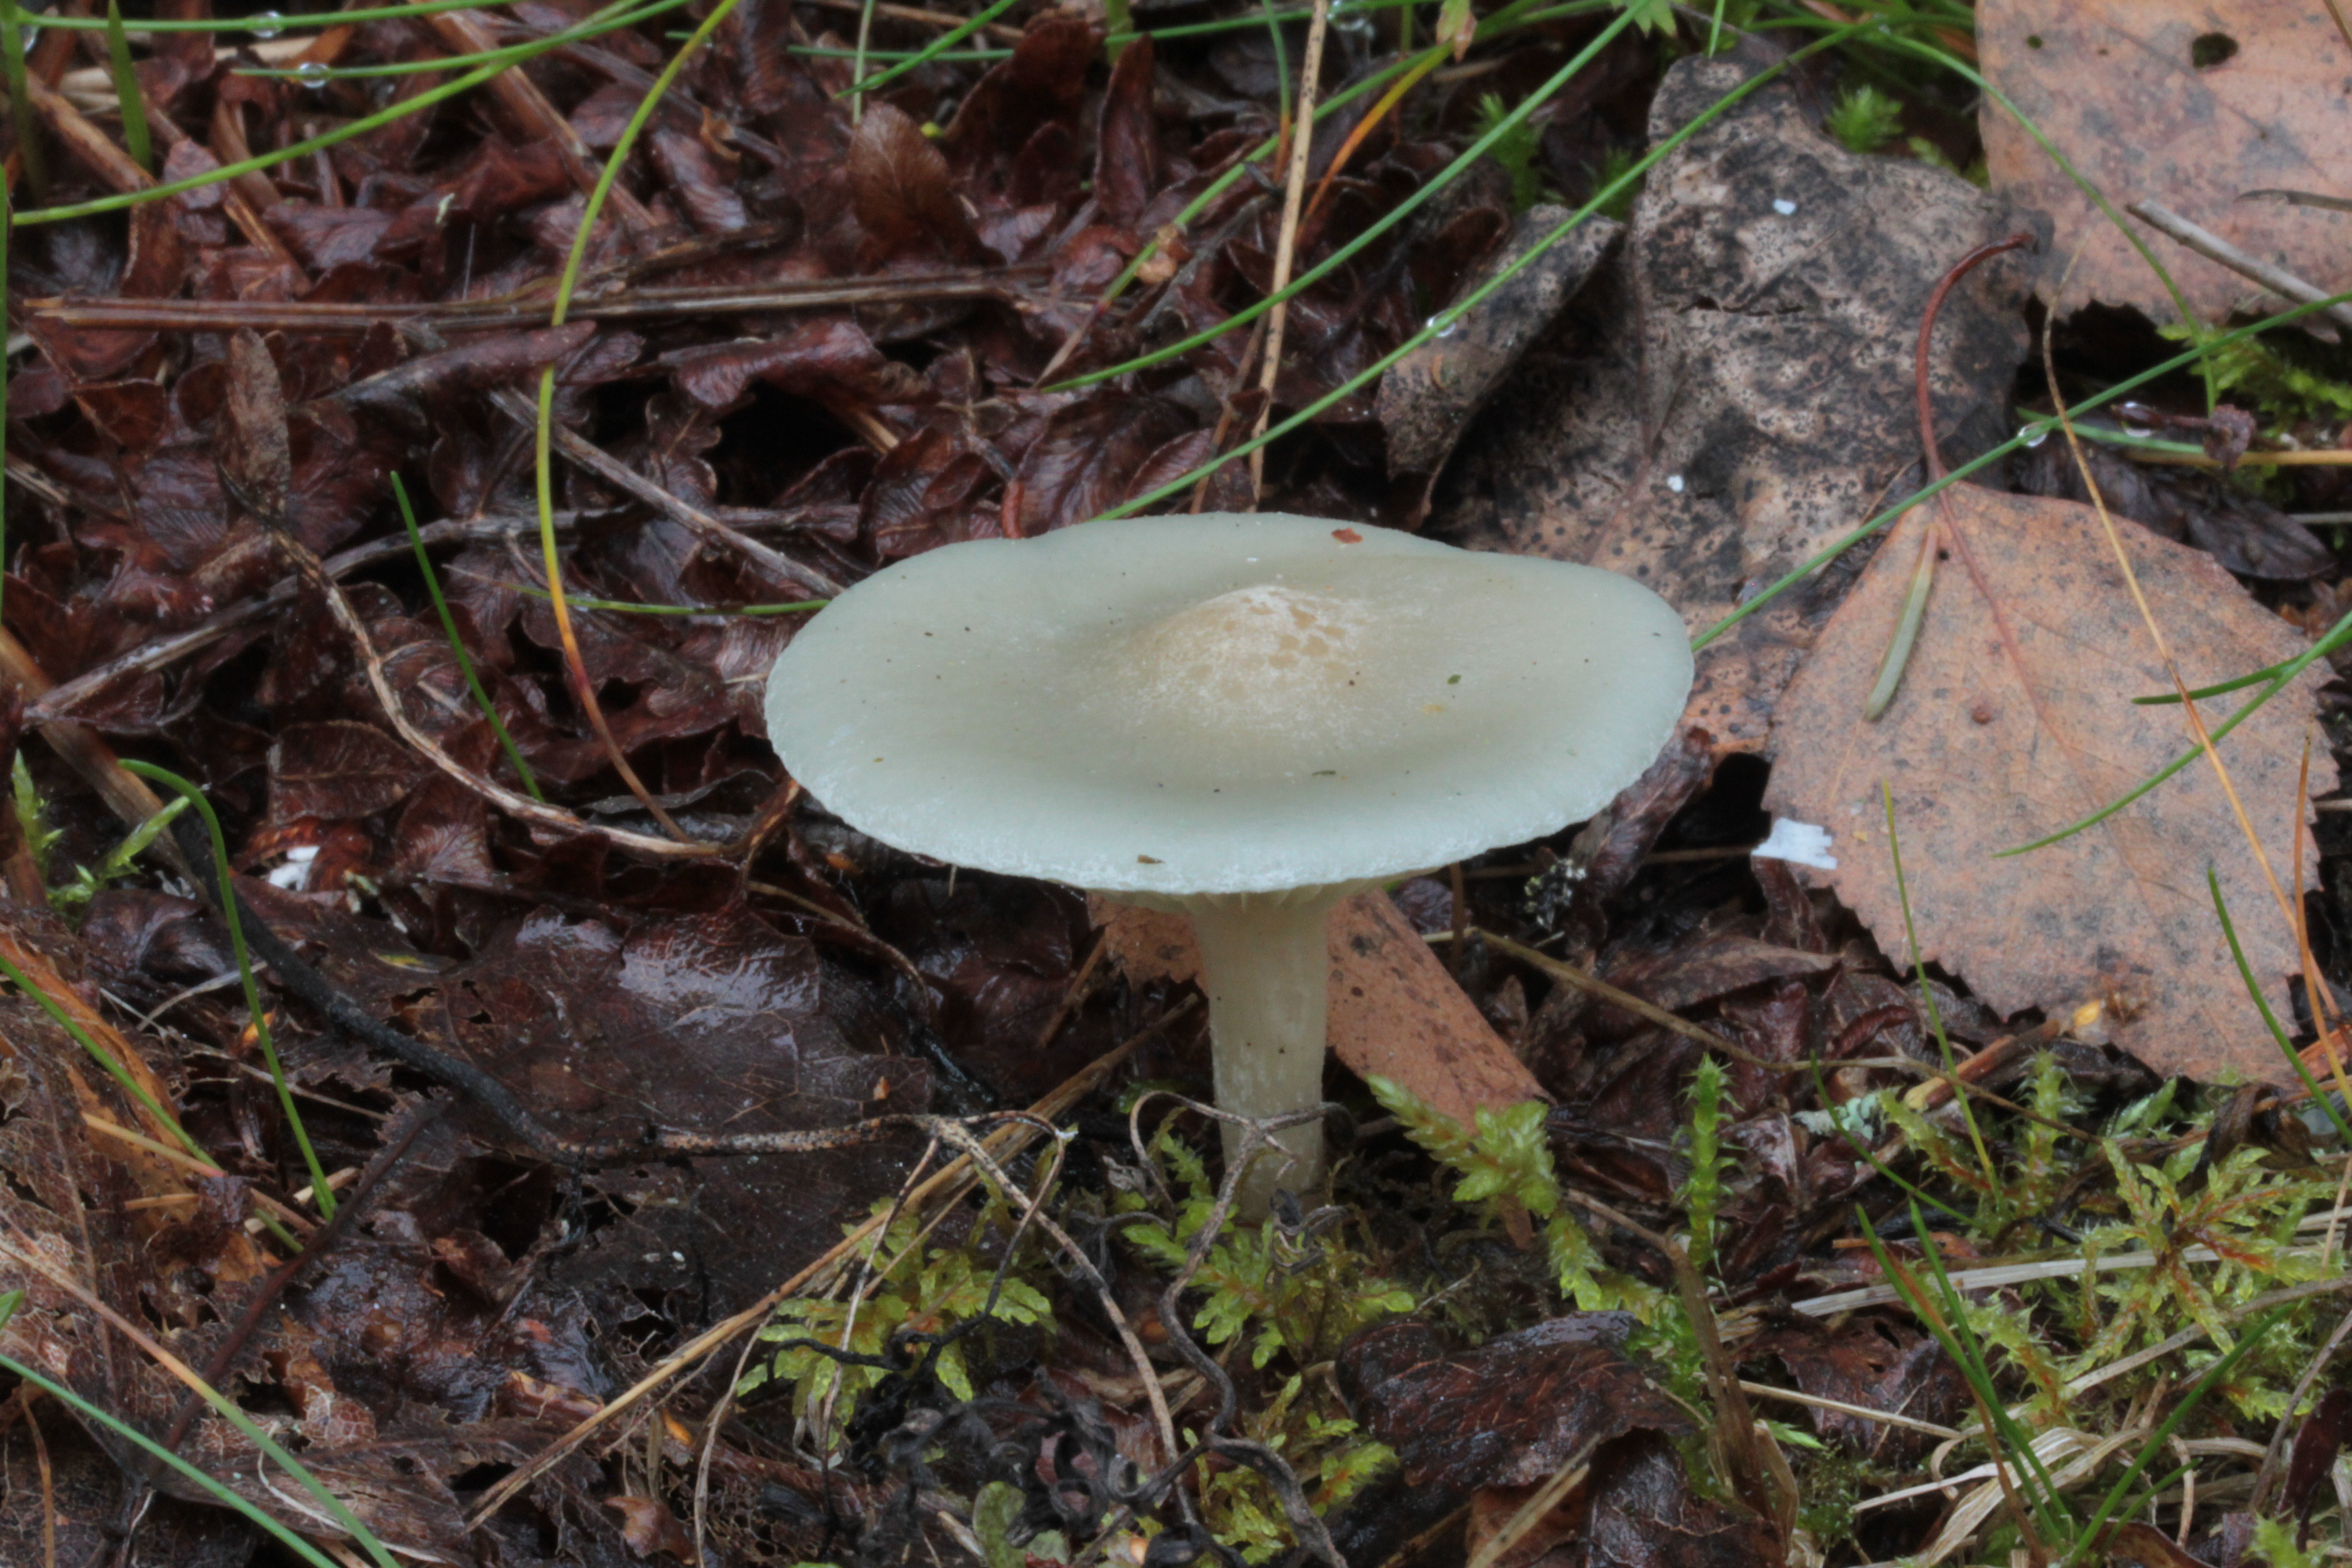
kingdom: Fungi
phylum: Basidiomycota
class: Agaricomycetes
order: Agaricales
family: Tricholomataceae
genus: Clitocybe
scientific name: Clitocybe odora
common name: Aniseed funnel
